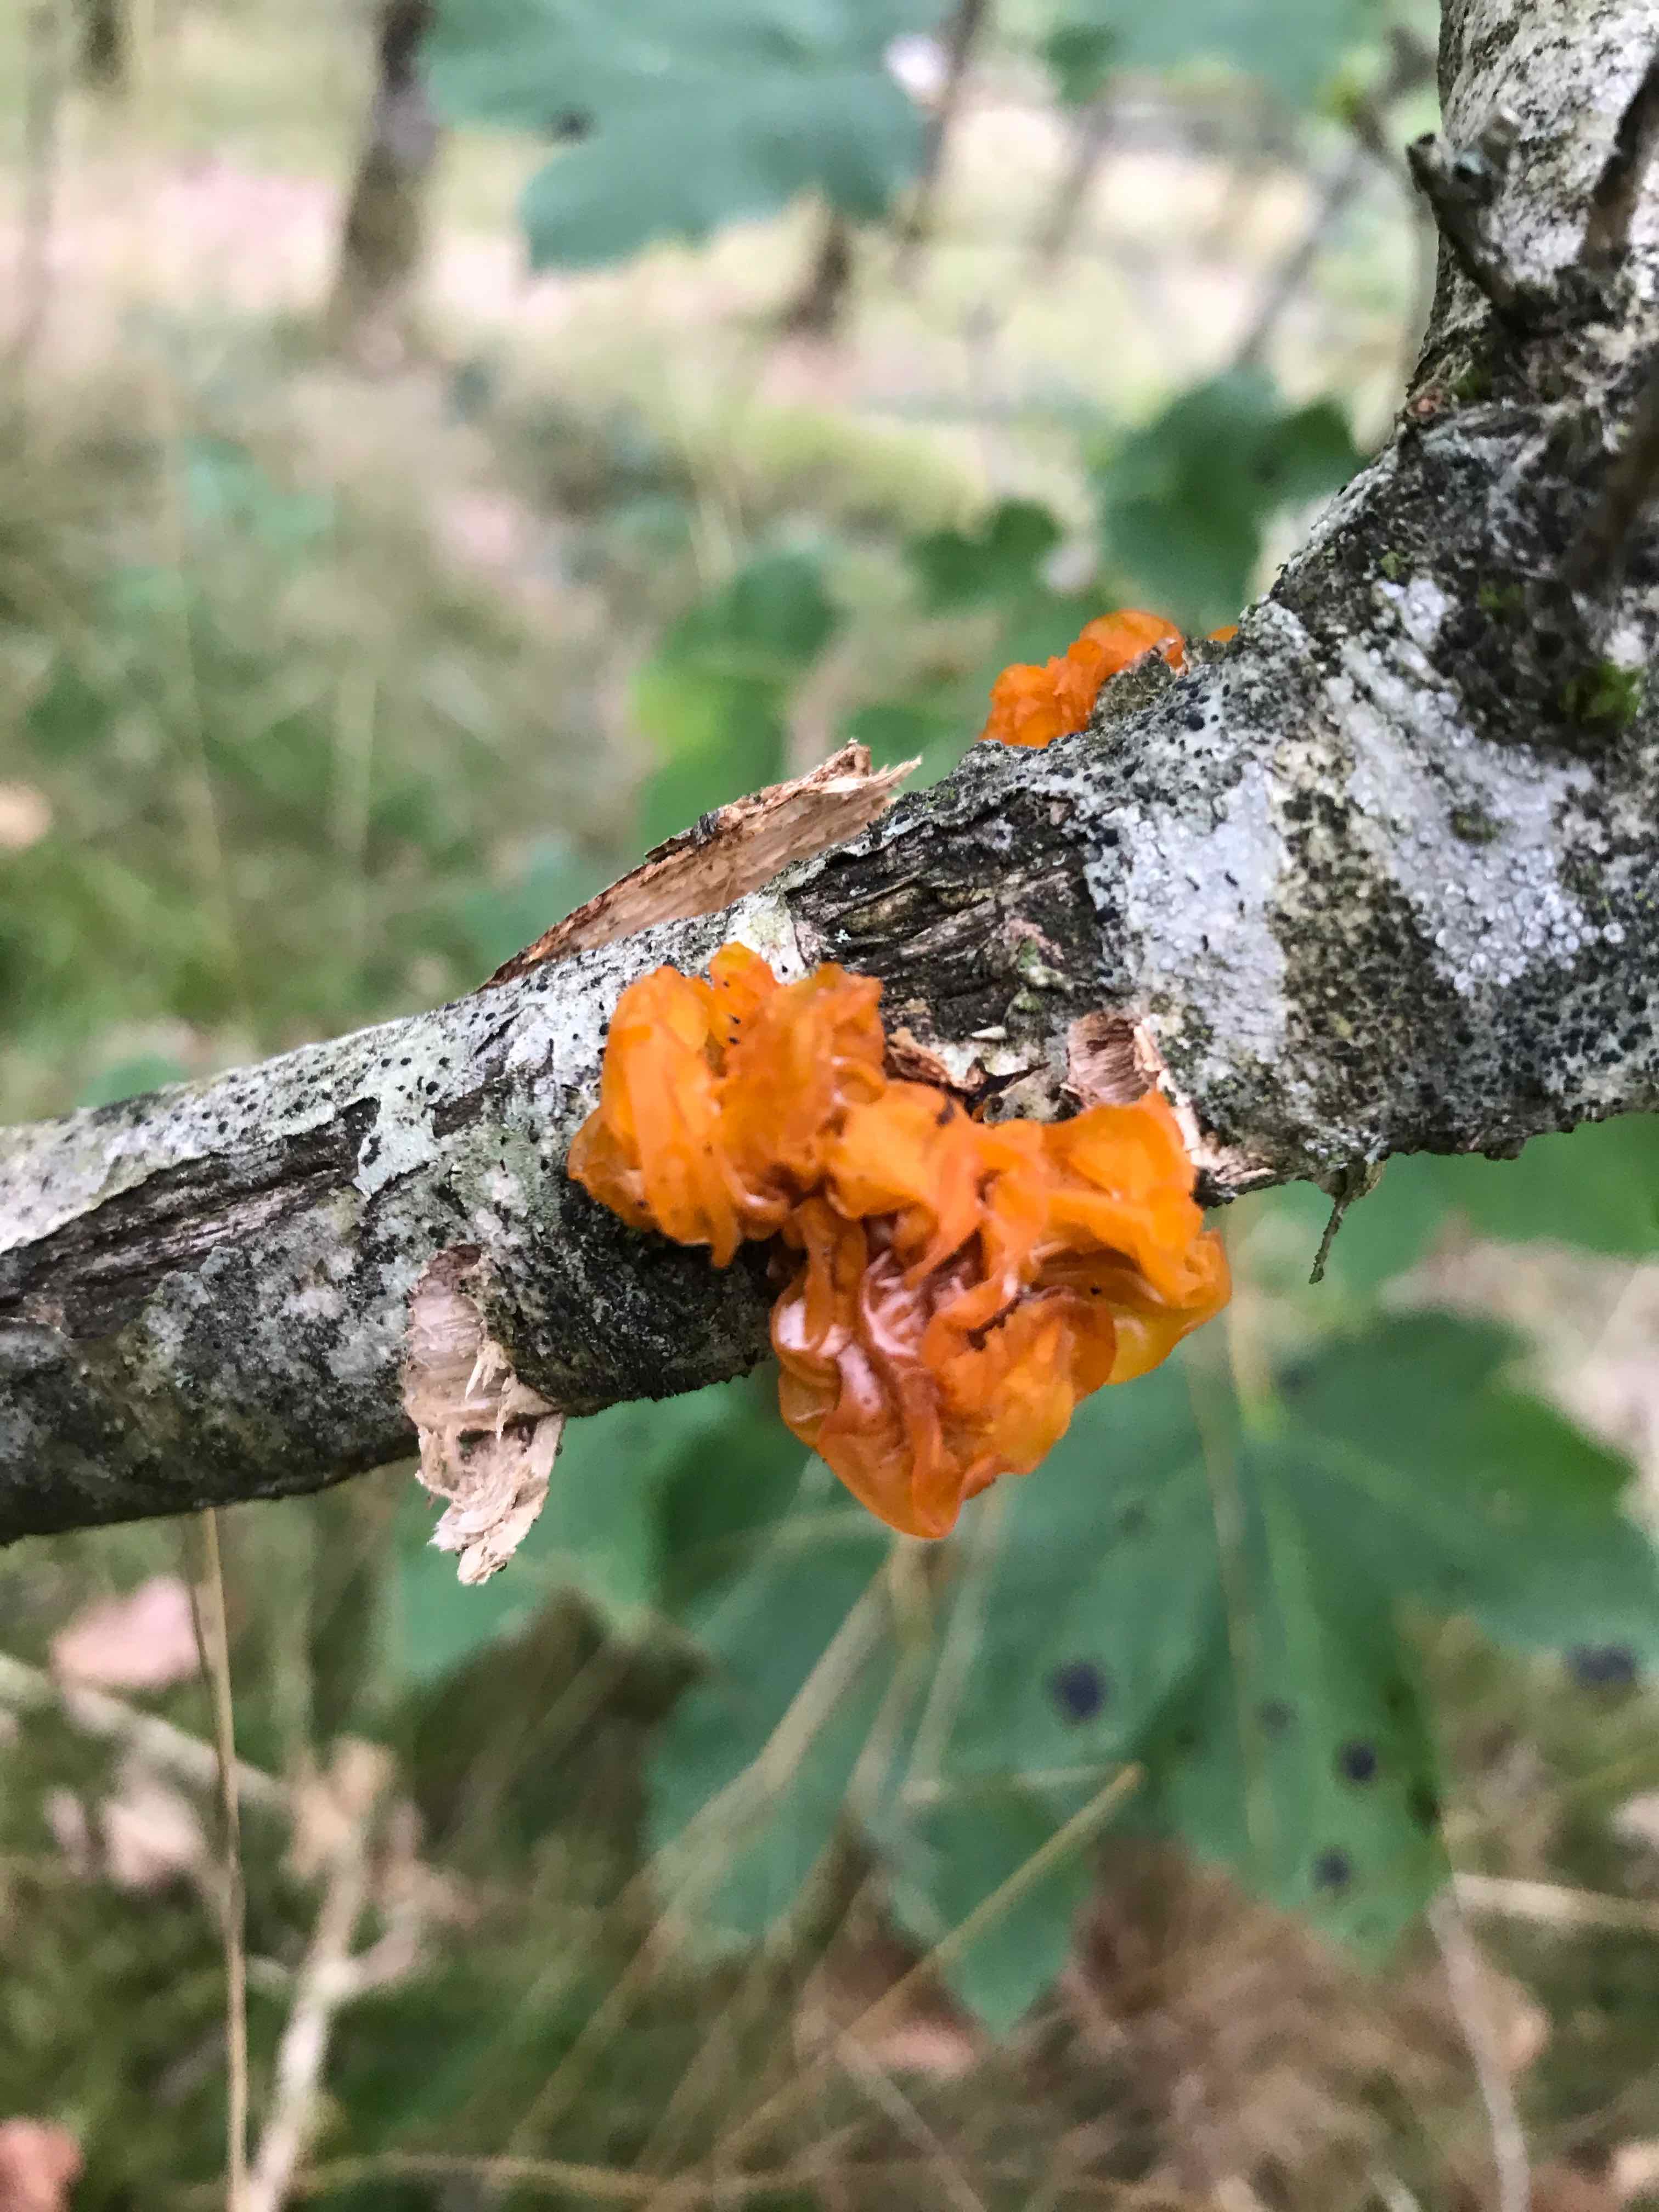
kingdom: Fungi
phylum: Basidiomycota
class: Tremellomycetes
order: Tremellales
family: Tremellaceae
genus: Tremella
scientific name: Tremella mesenterica
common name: gul bævresvamp
